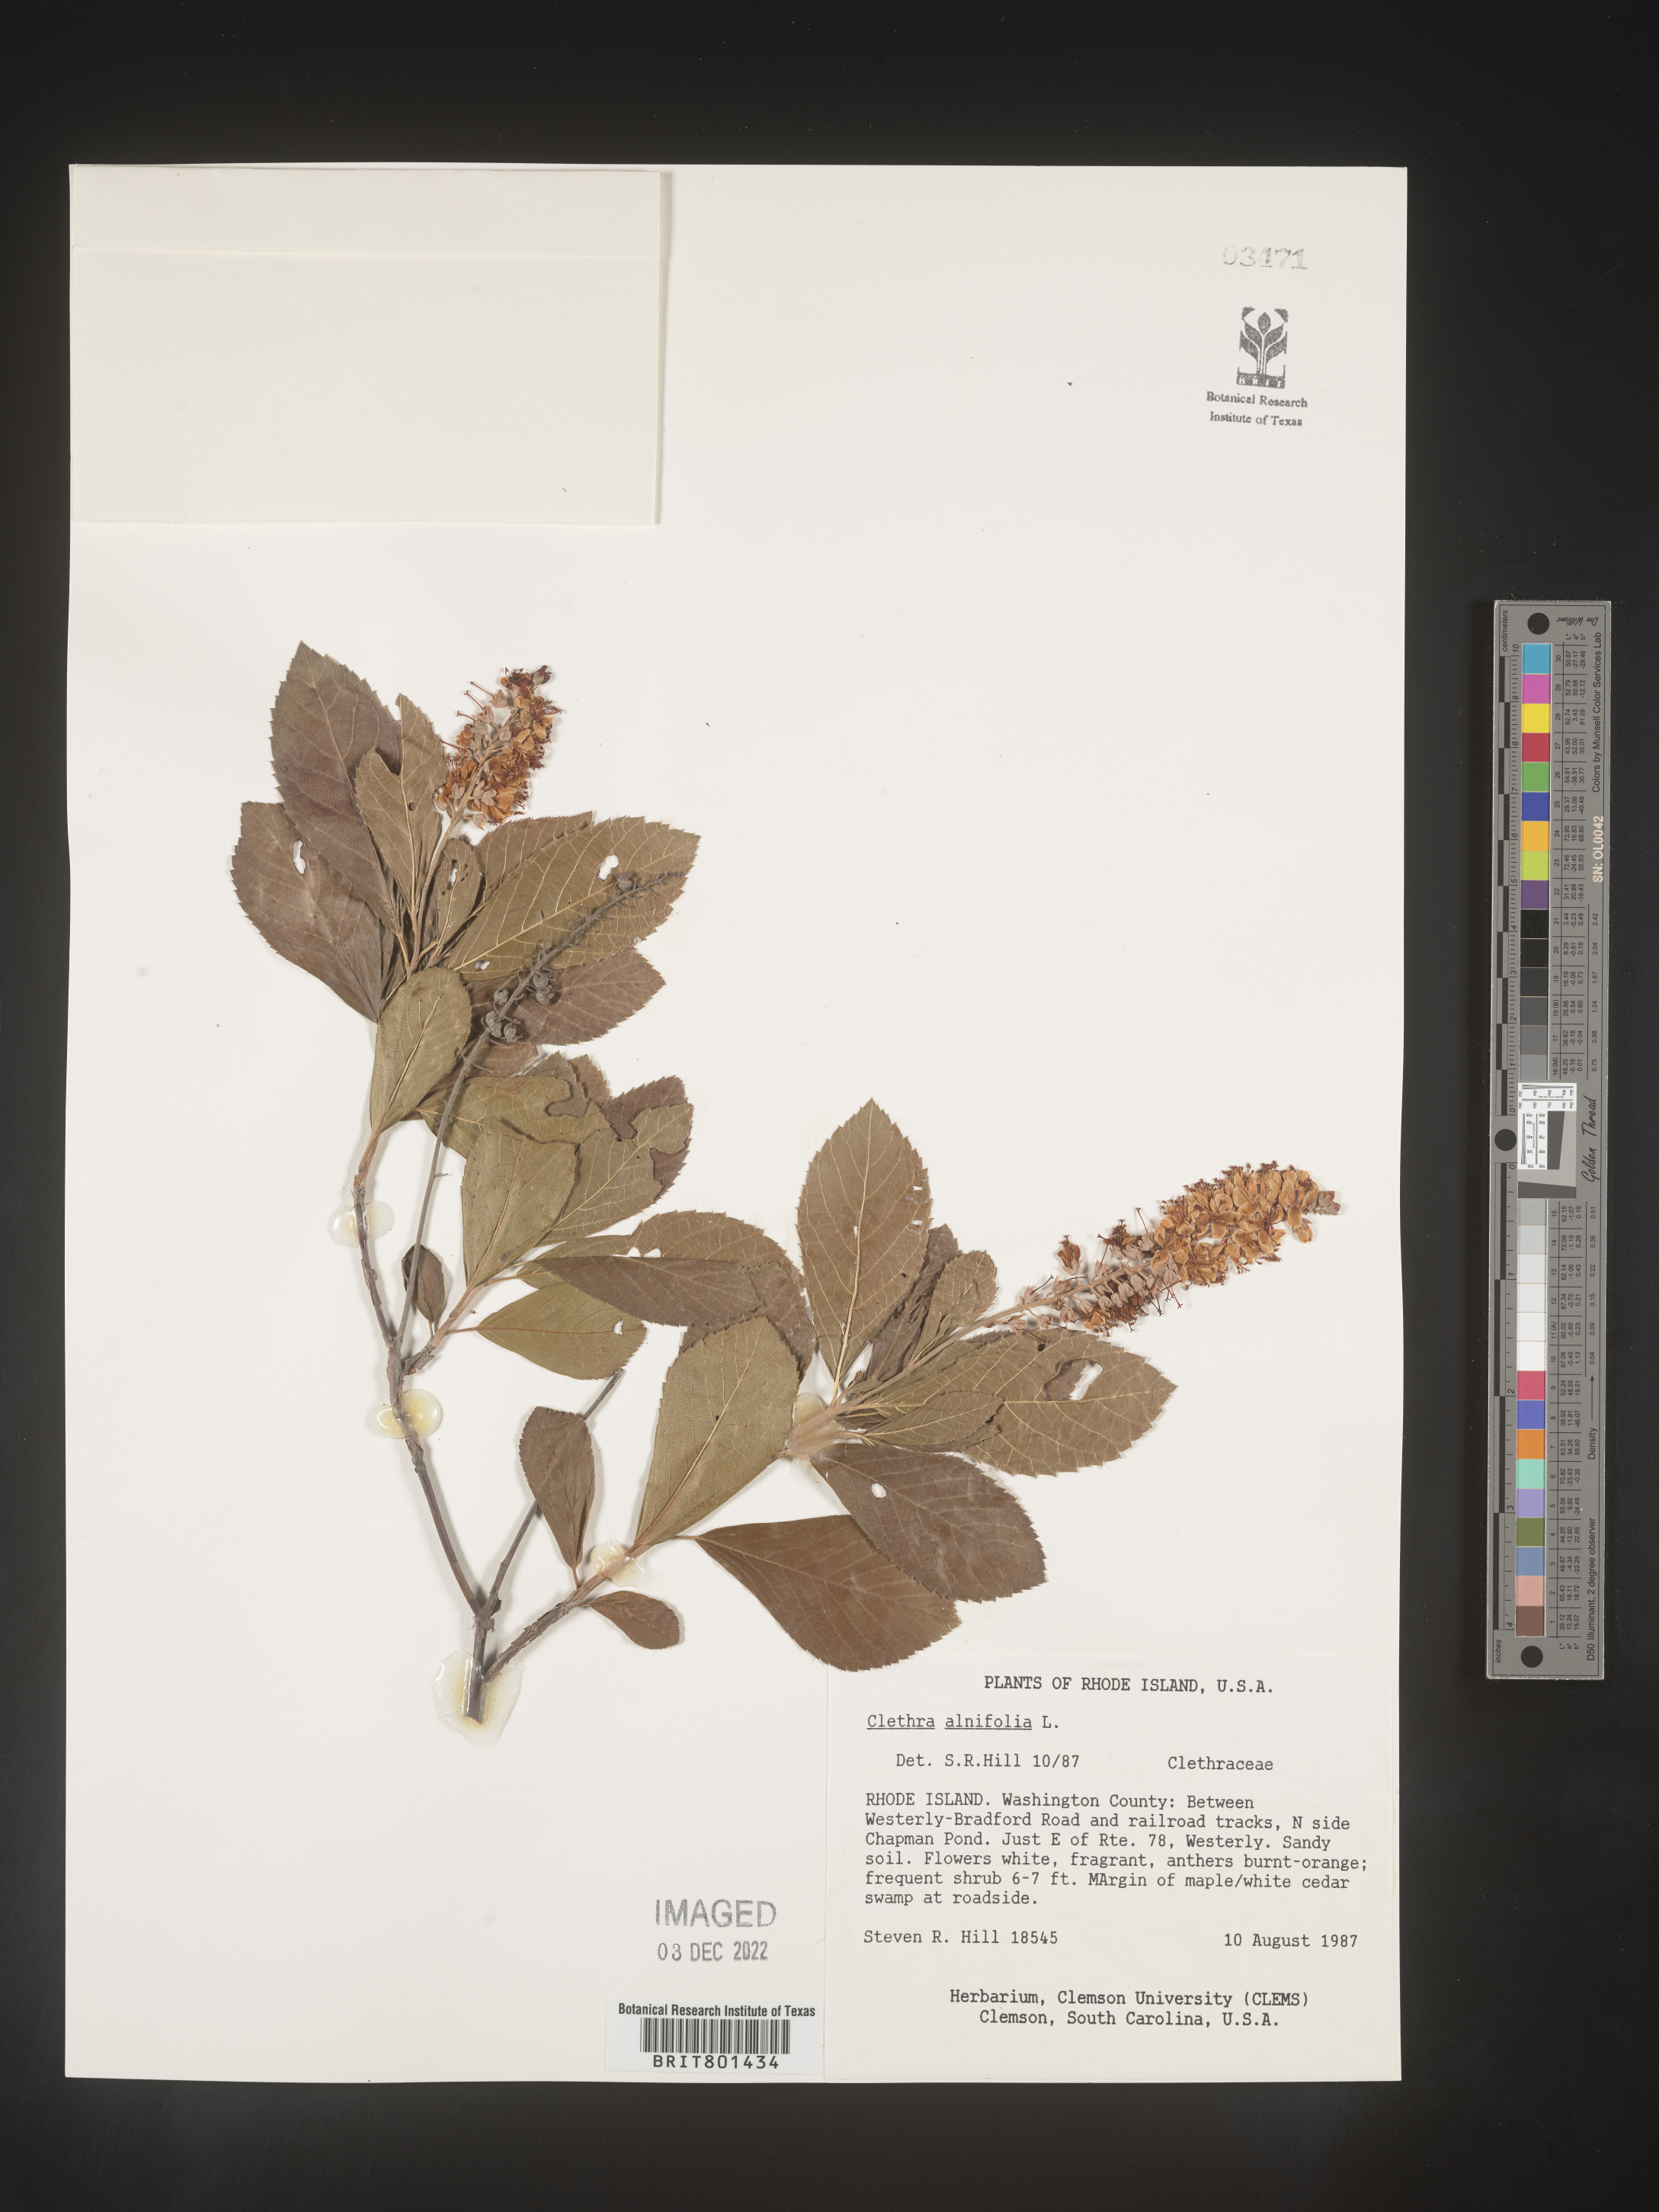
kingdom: Plantae
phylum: Tracheophyta
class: Magnoliopsida
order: Ericales
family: Clethraceae
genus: Clethra
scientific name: Clethra alnifolia
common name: Sweet pepperbush
